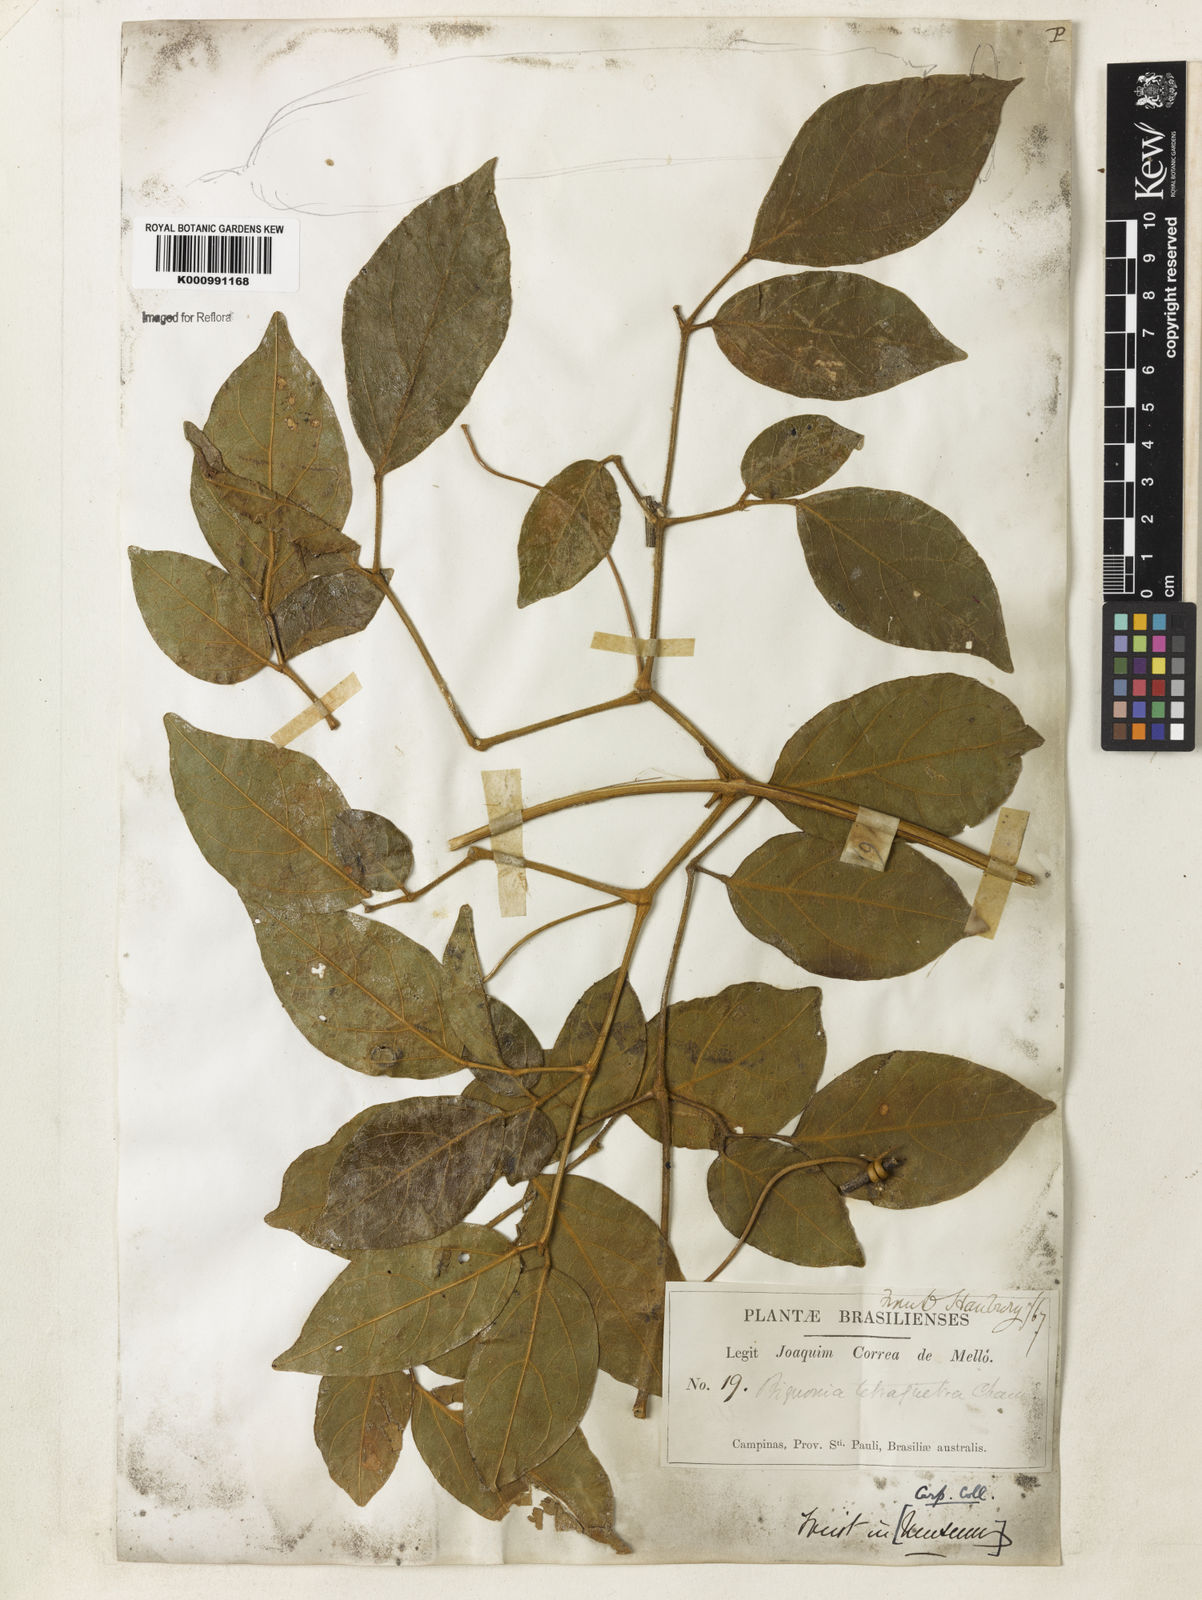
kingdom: Plantae
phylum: Tracheophyta
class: Magnoliopsida
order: Lamiales
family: Bignoniaceae
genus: Pleonotoma
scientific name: Pleonotoma tetraquetra
